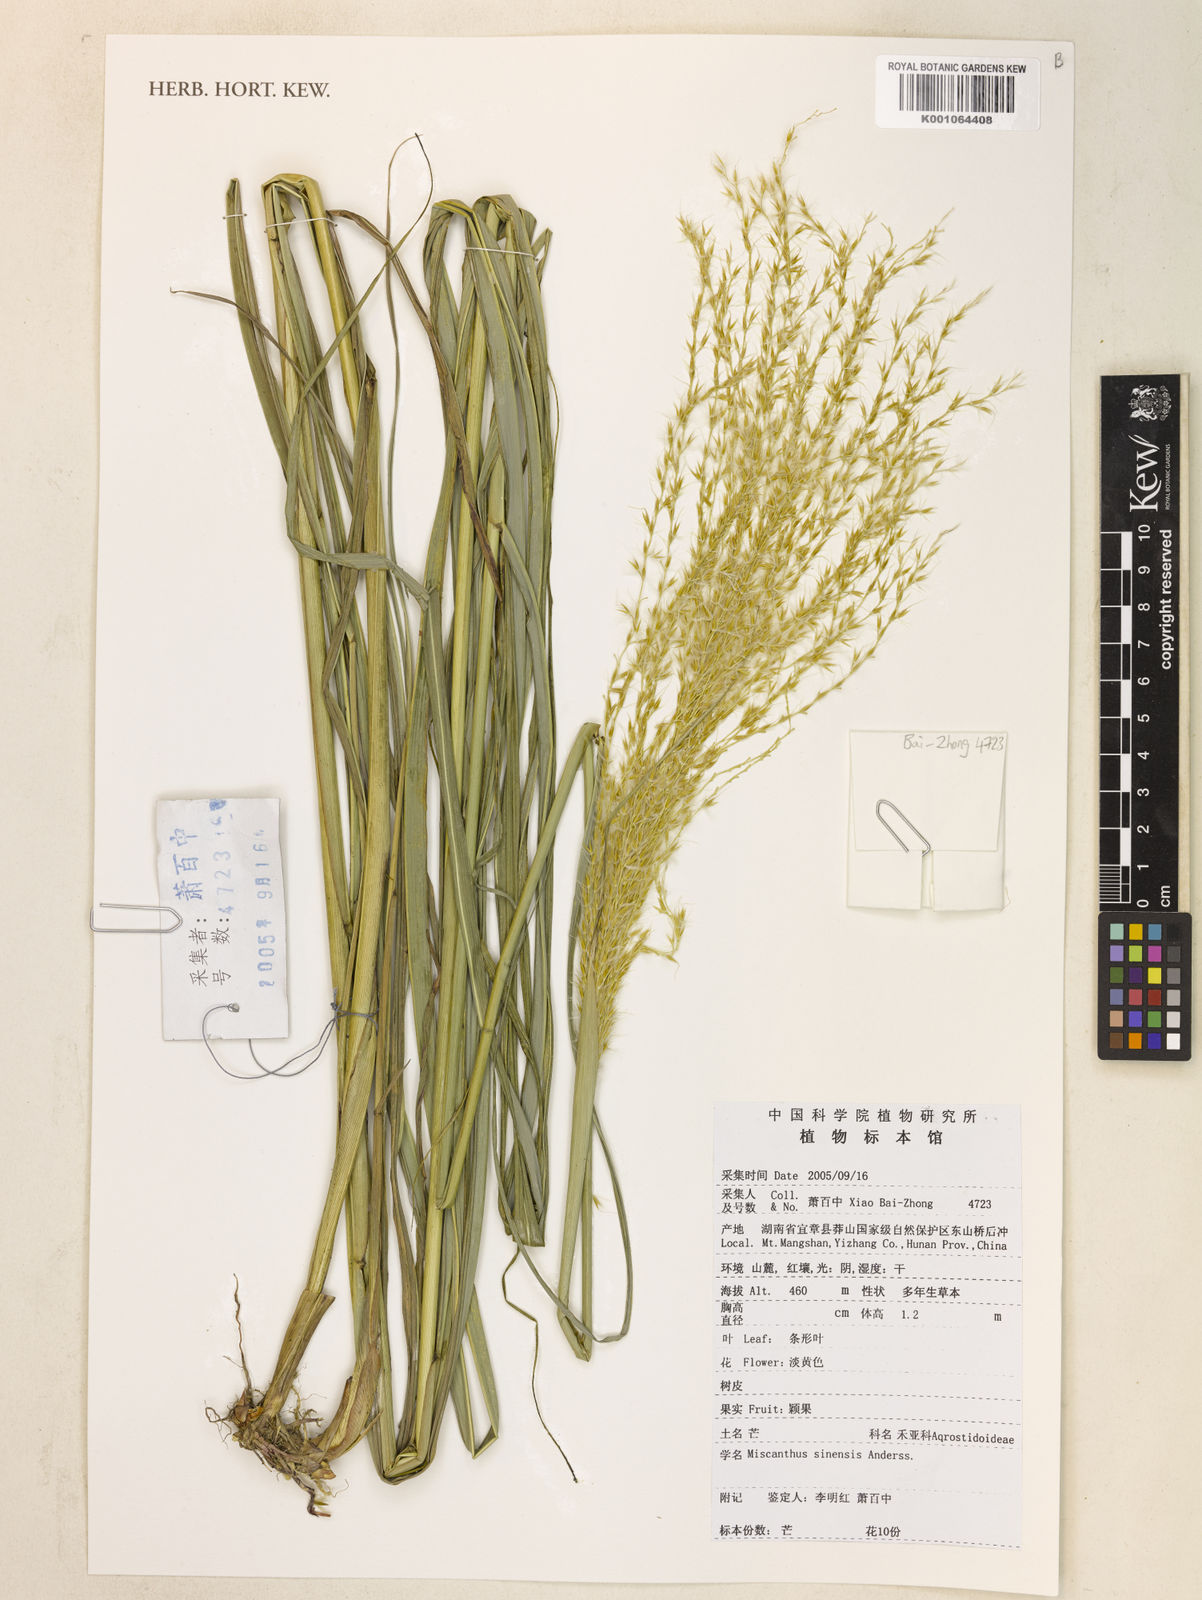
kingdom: Plantae
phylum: Tracheophyta
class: Liliopsida
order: Poales
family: Poaceae
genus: Miscanthus
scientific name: Miscanthus sinensis
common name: Chinese silvergrass
